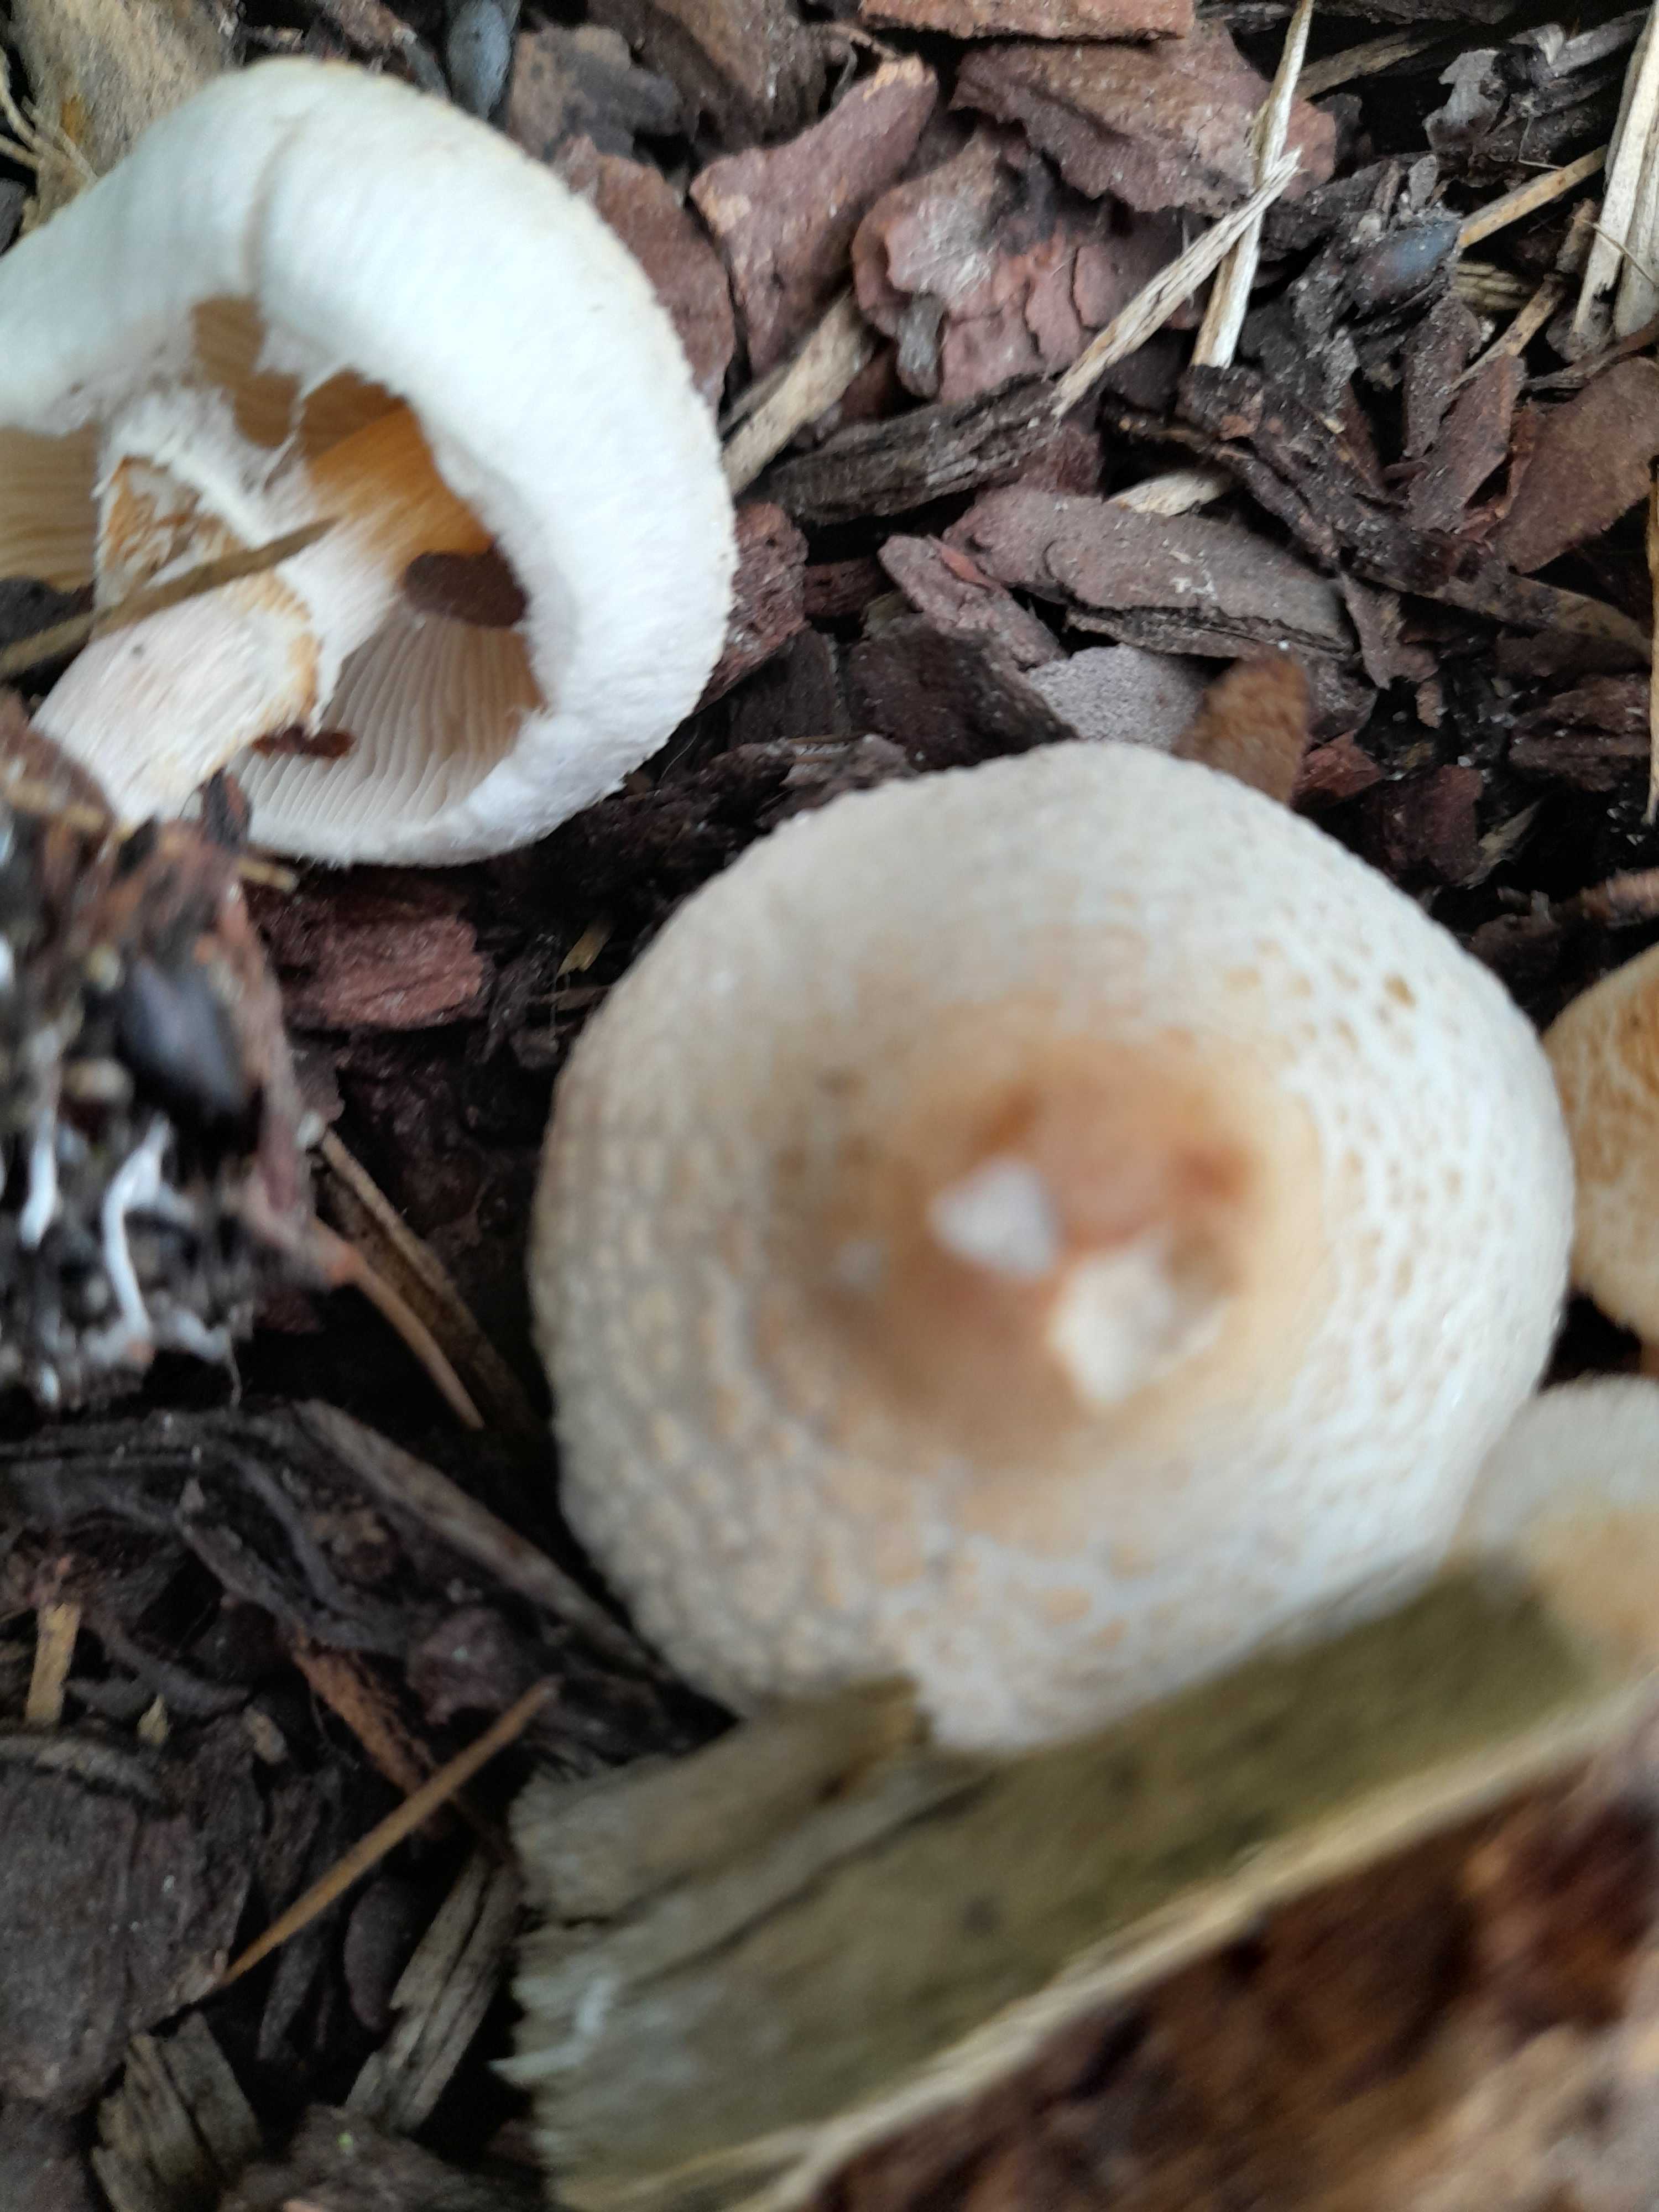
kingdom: Fungi
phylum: Basidiomycota
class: Agaricomycetes
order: Agaricales
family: Agaricaceae
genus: Lepiota
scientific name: Lepiota cristata
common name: stinkende parasolhat
